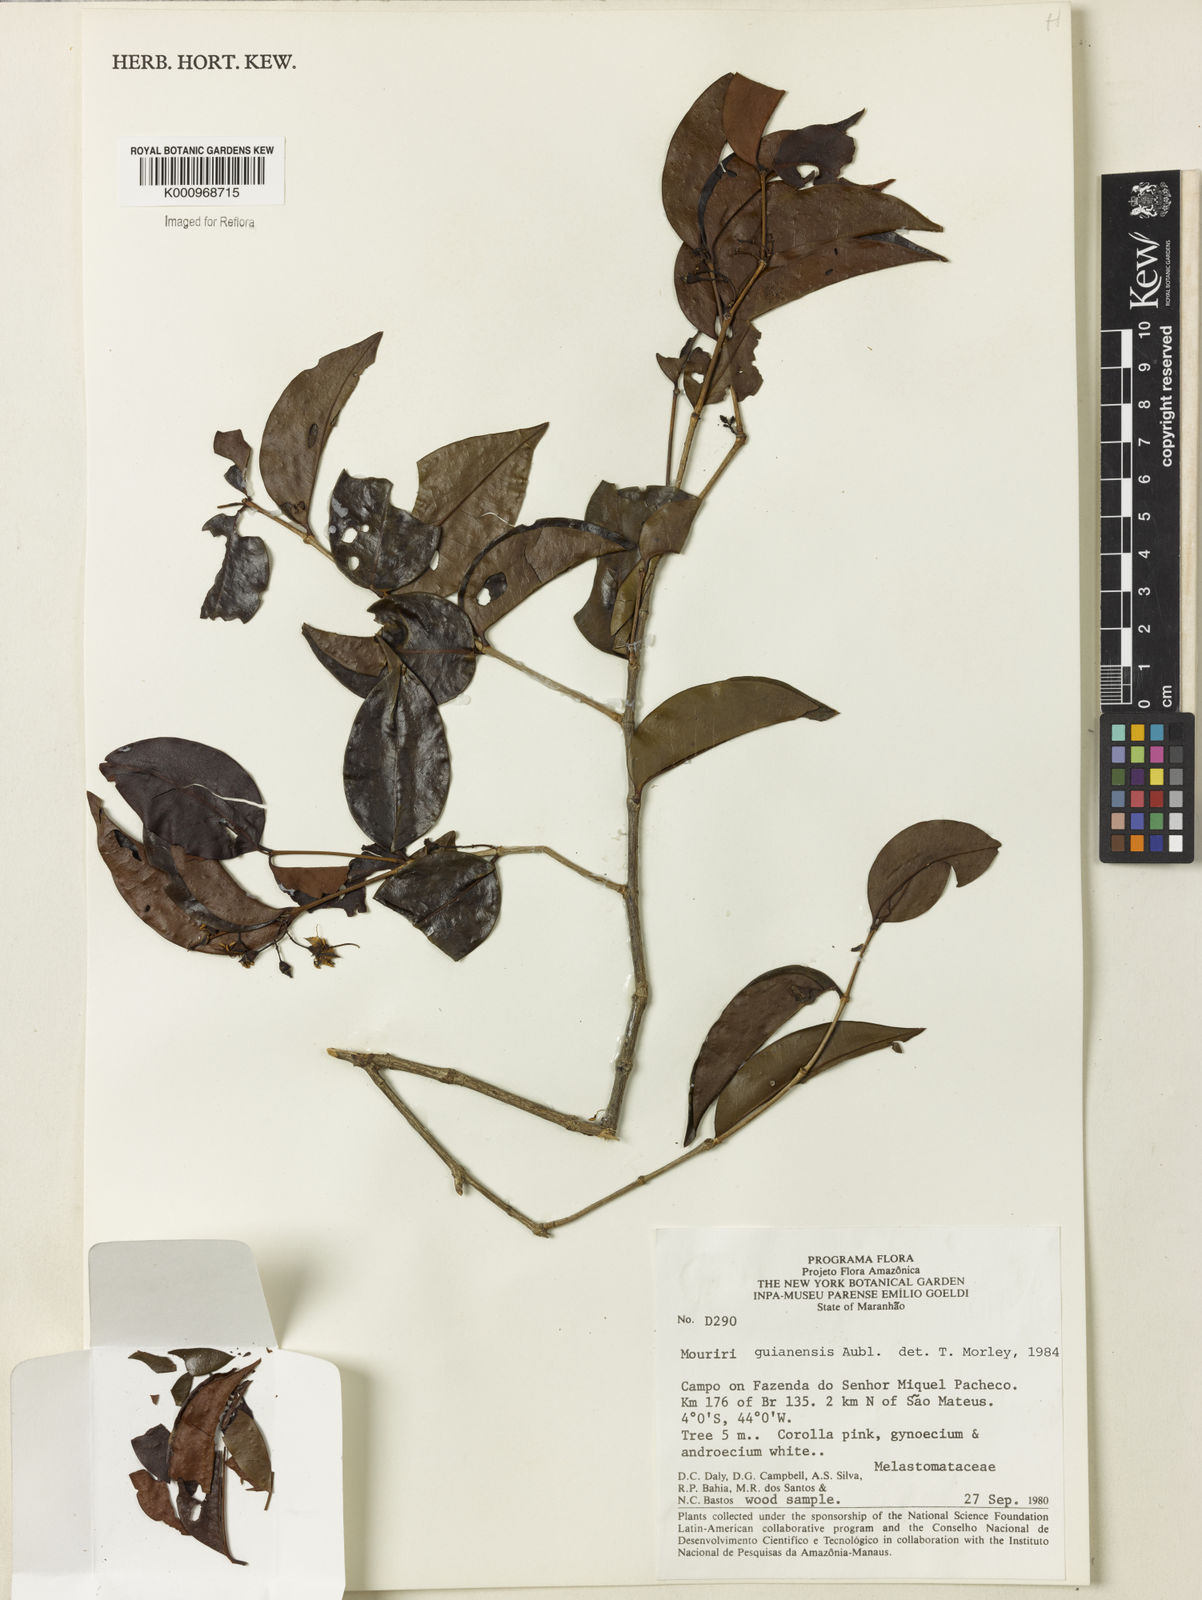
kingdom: Plantae
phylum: Tracheophyta
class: Magnoliopsida
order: Myrtales
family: Melastomataceae
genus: Mouriri
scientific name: Mouriri guianensis
